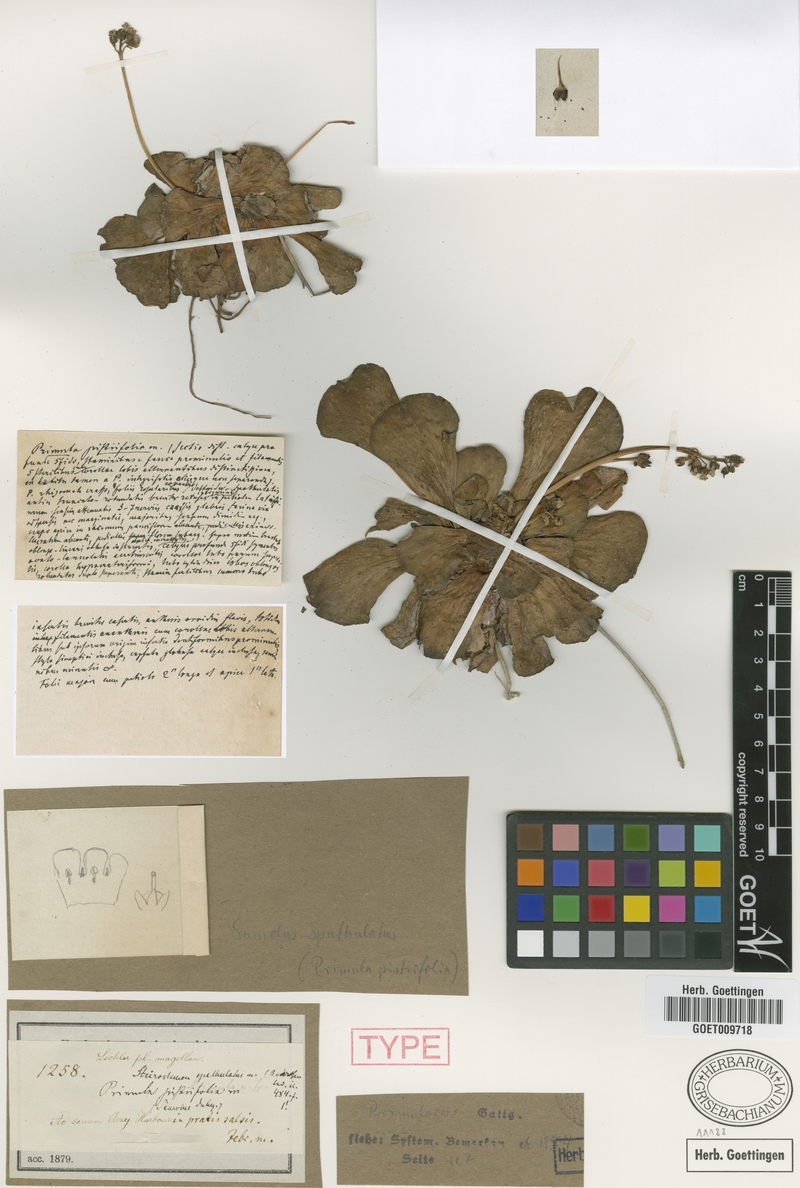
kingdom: Plantae
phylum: Tracheophyta
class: Magnoliopsida
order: Ericales
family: Primulaceae
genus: Samolus
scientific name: Samolus spathulatus
